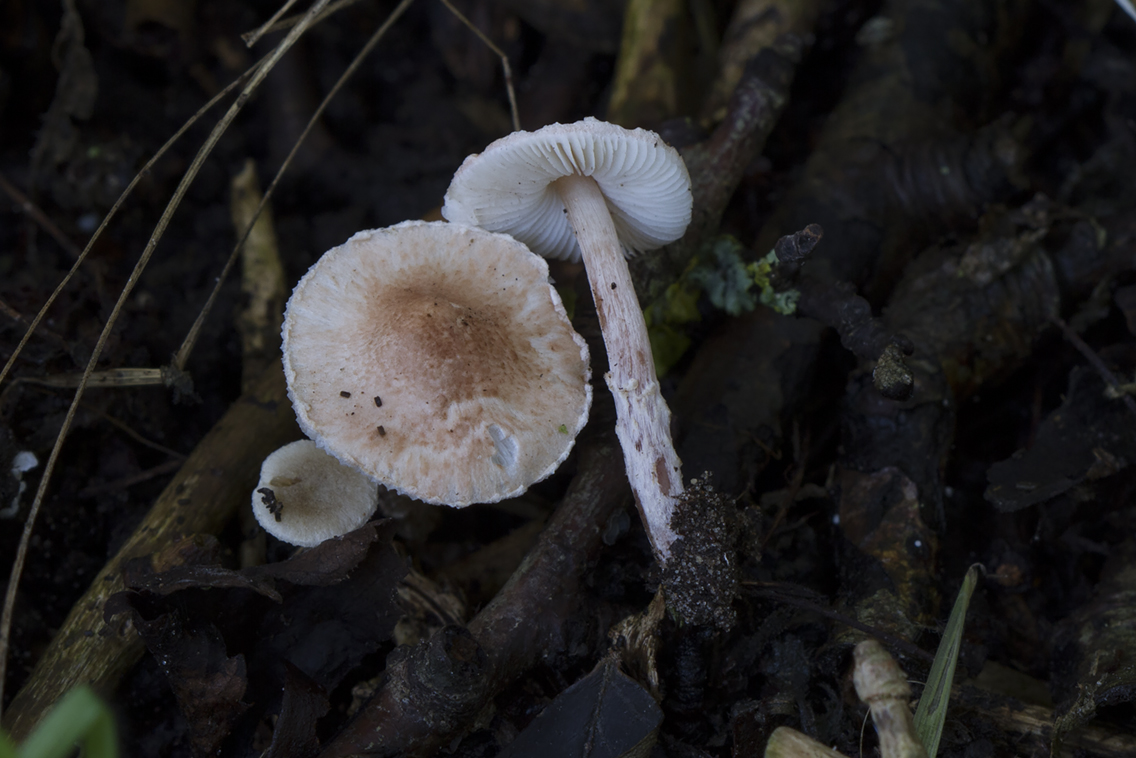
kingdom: Fungi
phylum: Basidiomycota
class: Agaricomycetes
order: Agaricales
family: Agaricaceae
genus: Lepiota
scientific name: Lepiota subincarnata
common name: kødfarvet parasolhat
